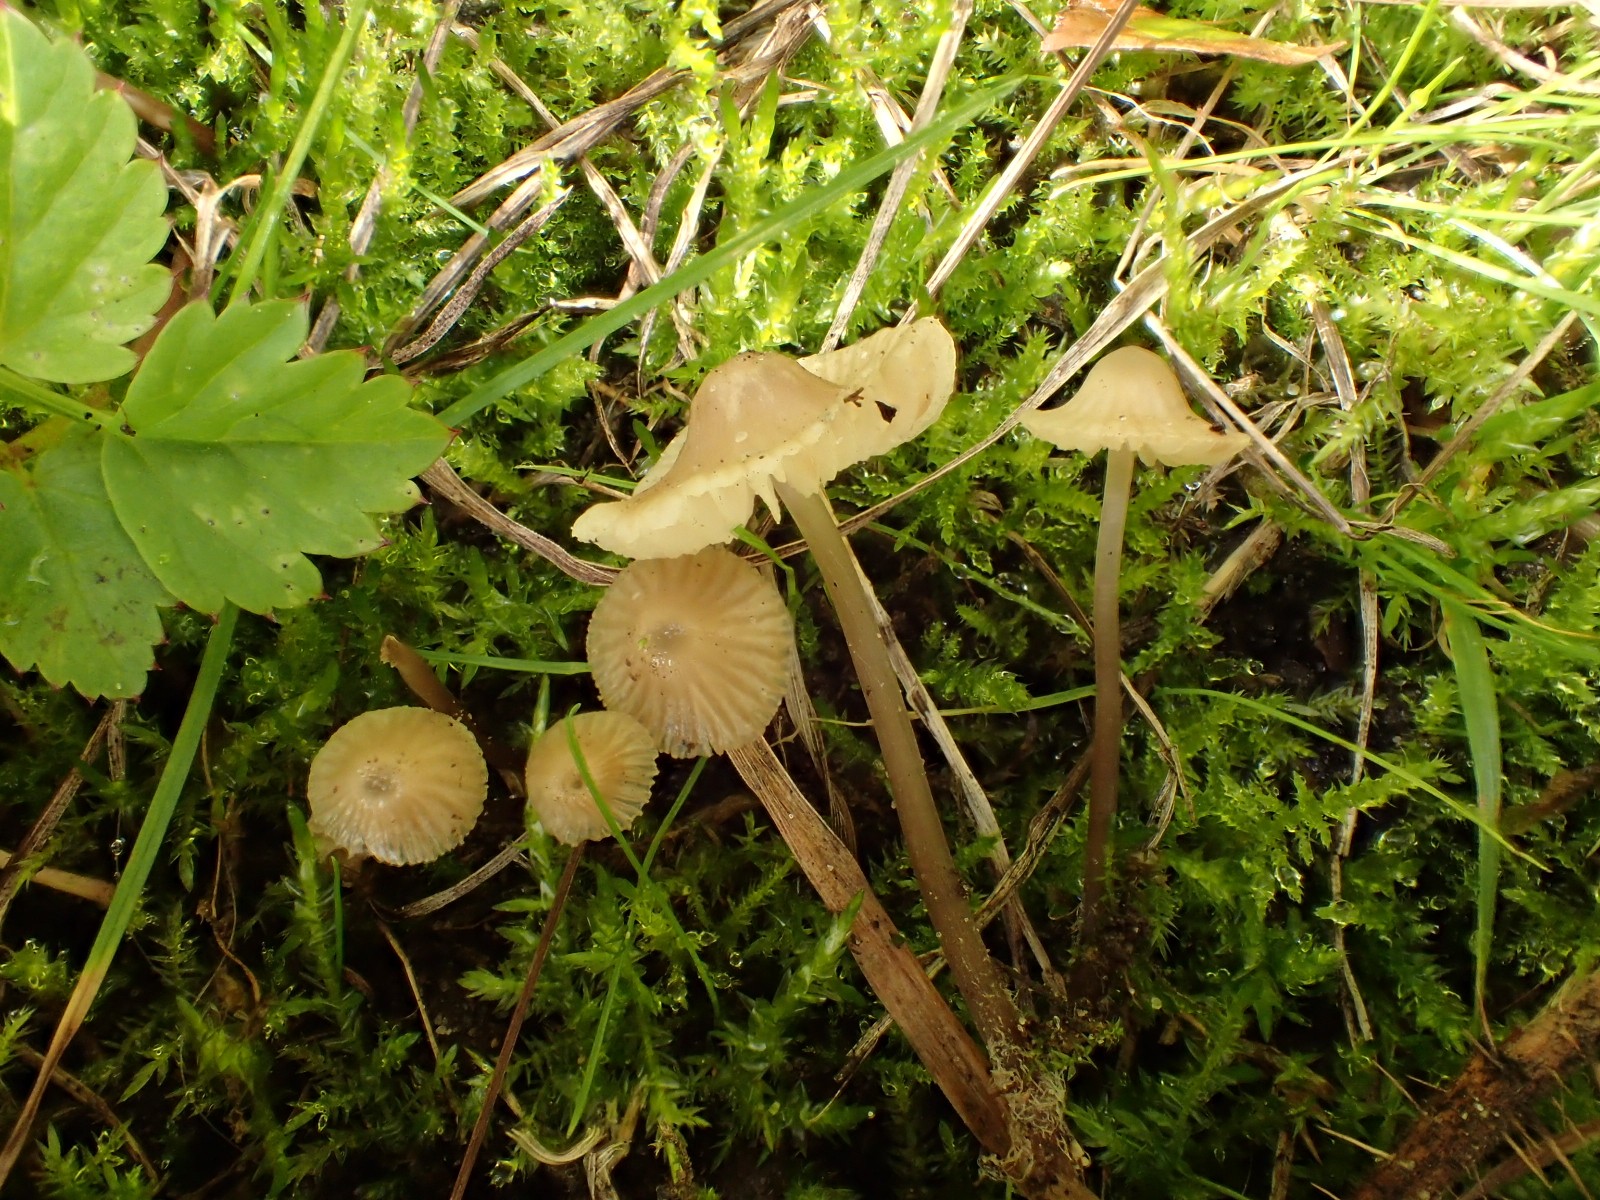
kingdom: Fungi
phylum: Basidiomycota
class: Agaricomycetes
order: Agaricales
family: Mycenaceae
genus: Mycena
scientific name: Mycena flavescens
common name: grågul huesvamp
